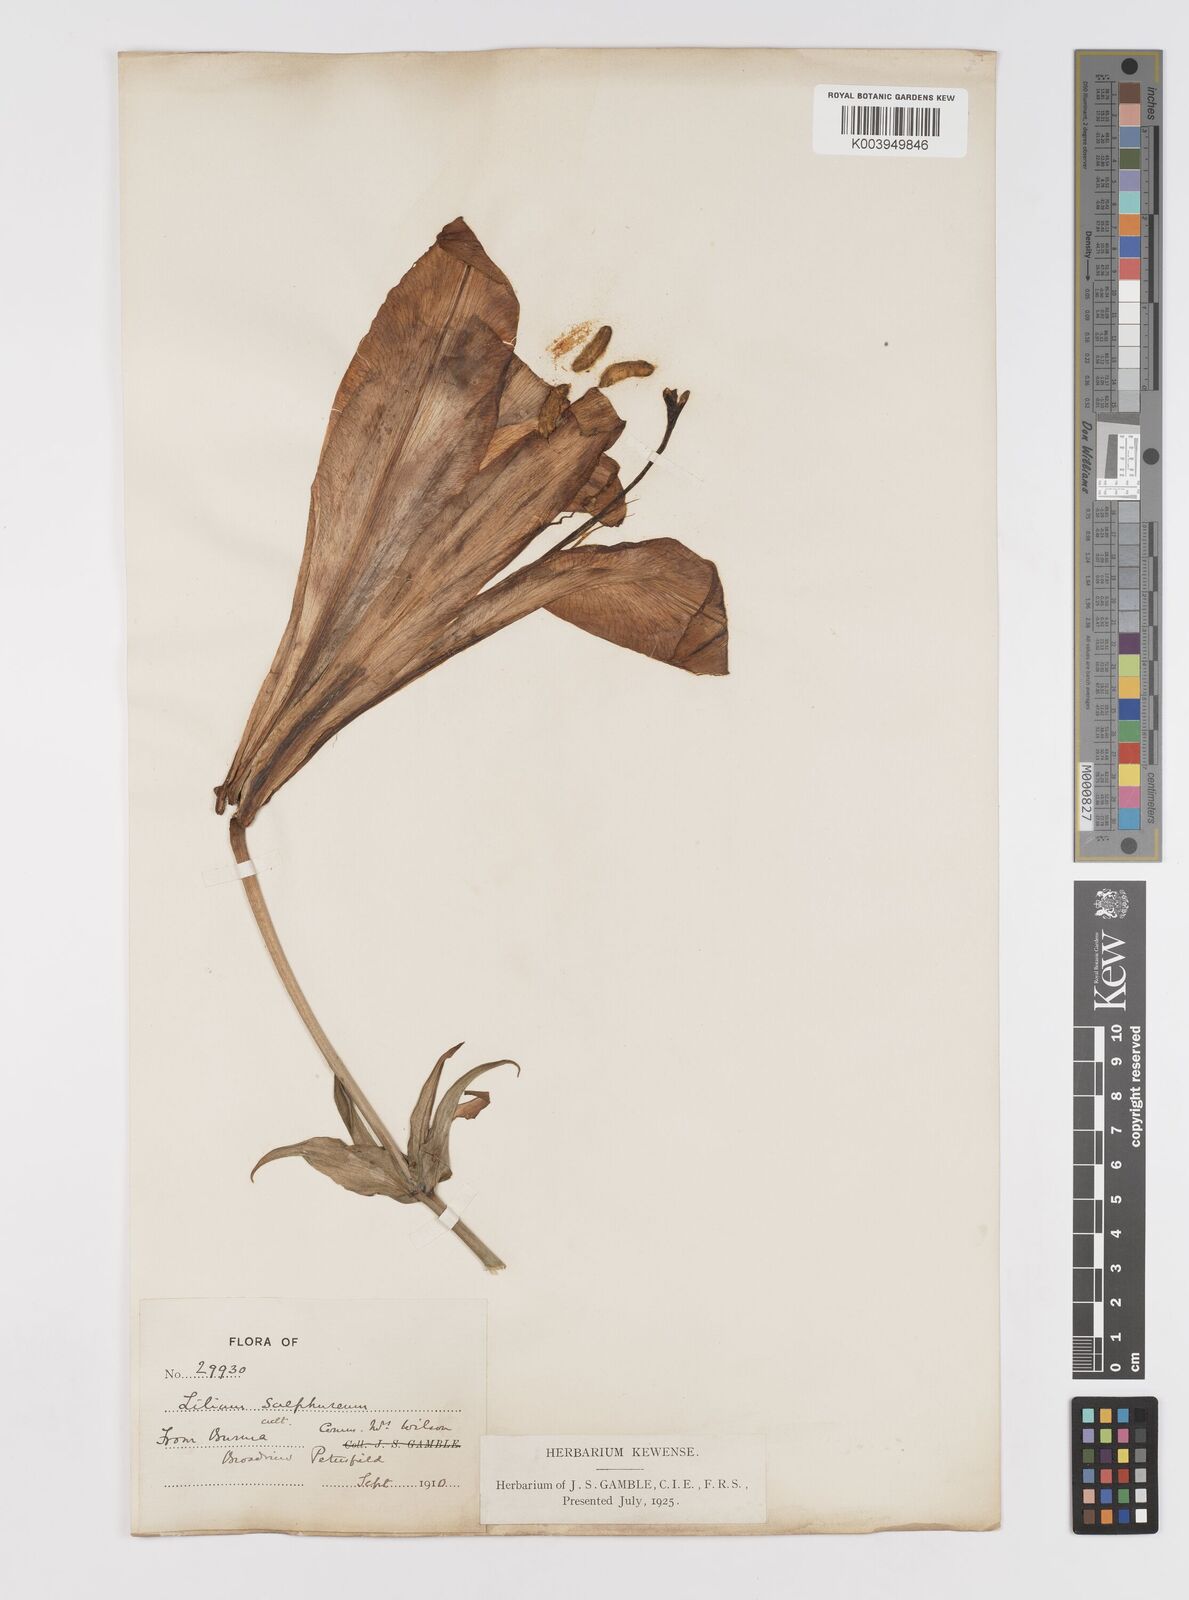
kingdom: Plantae
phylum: Tracheophyta
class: Liliopsida
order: Liliales
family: Liliaceae
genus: Lilium
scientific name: Lilium sulphureum
